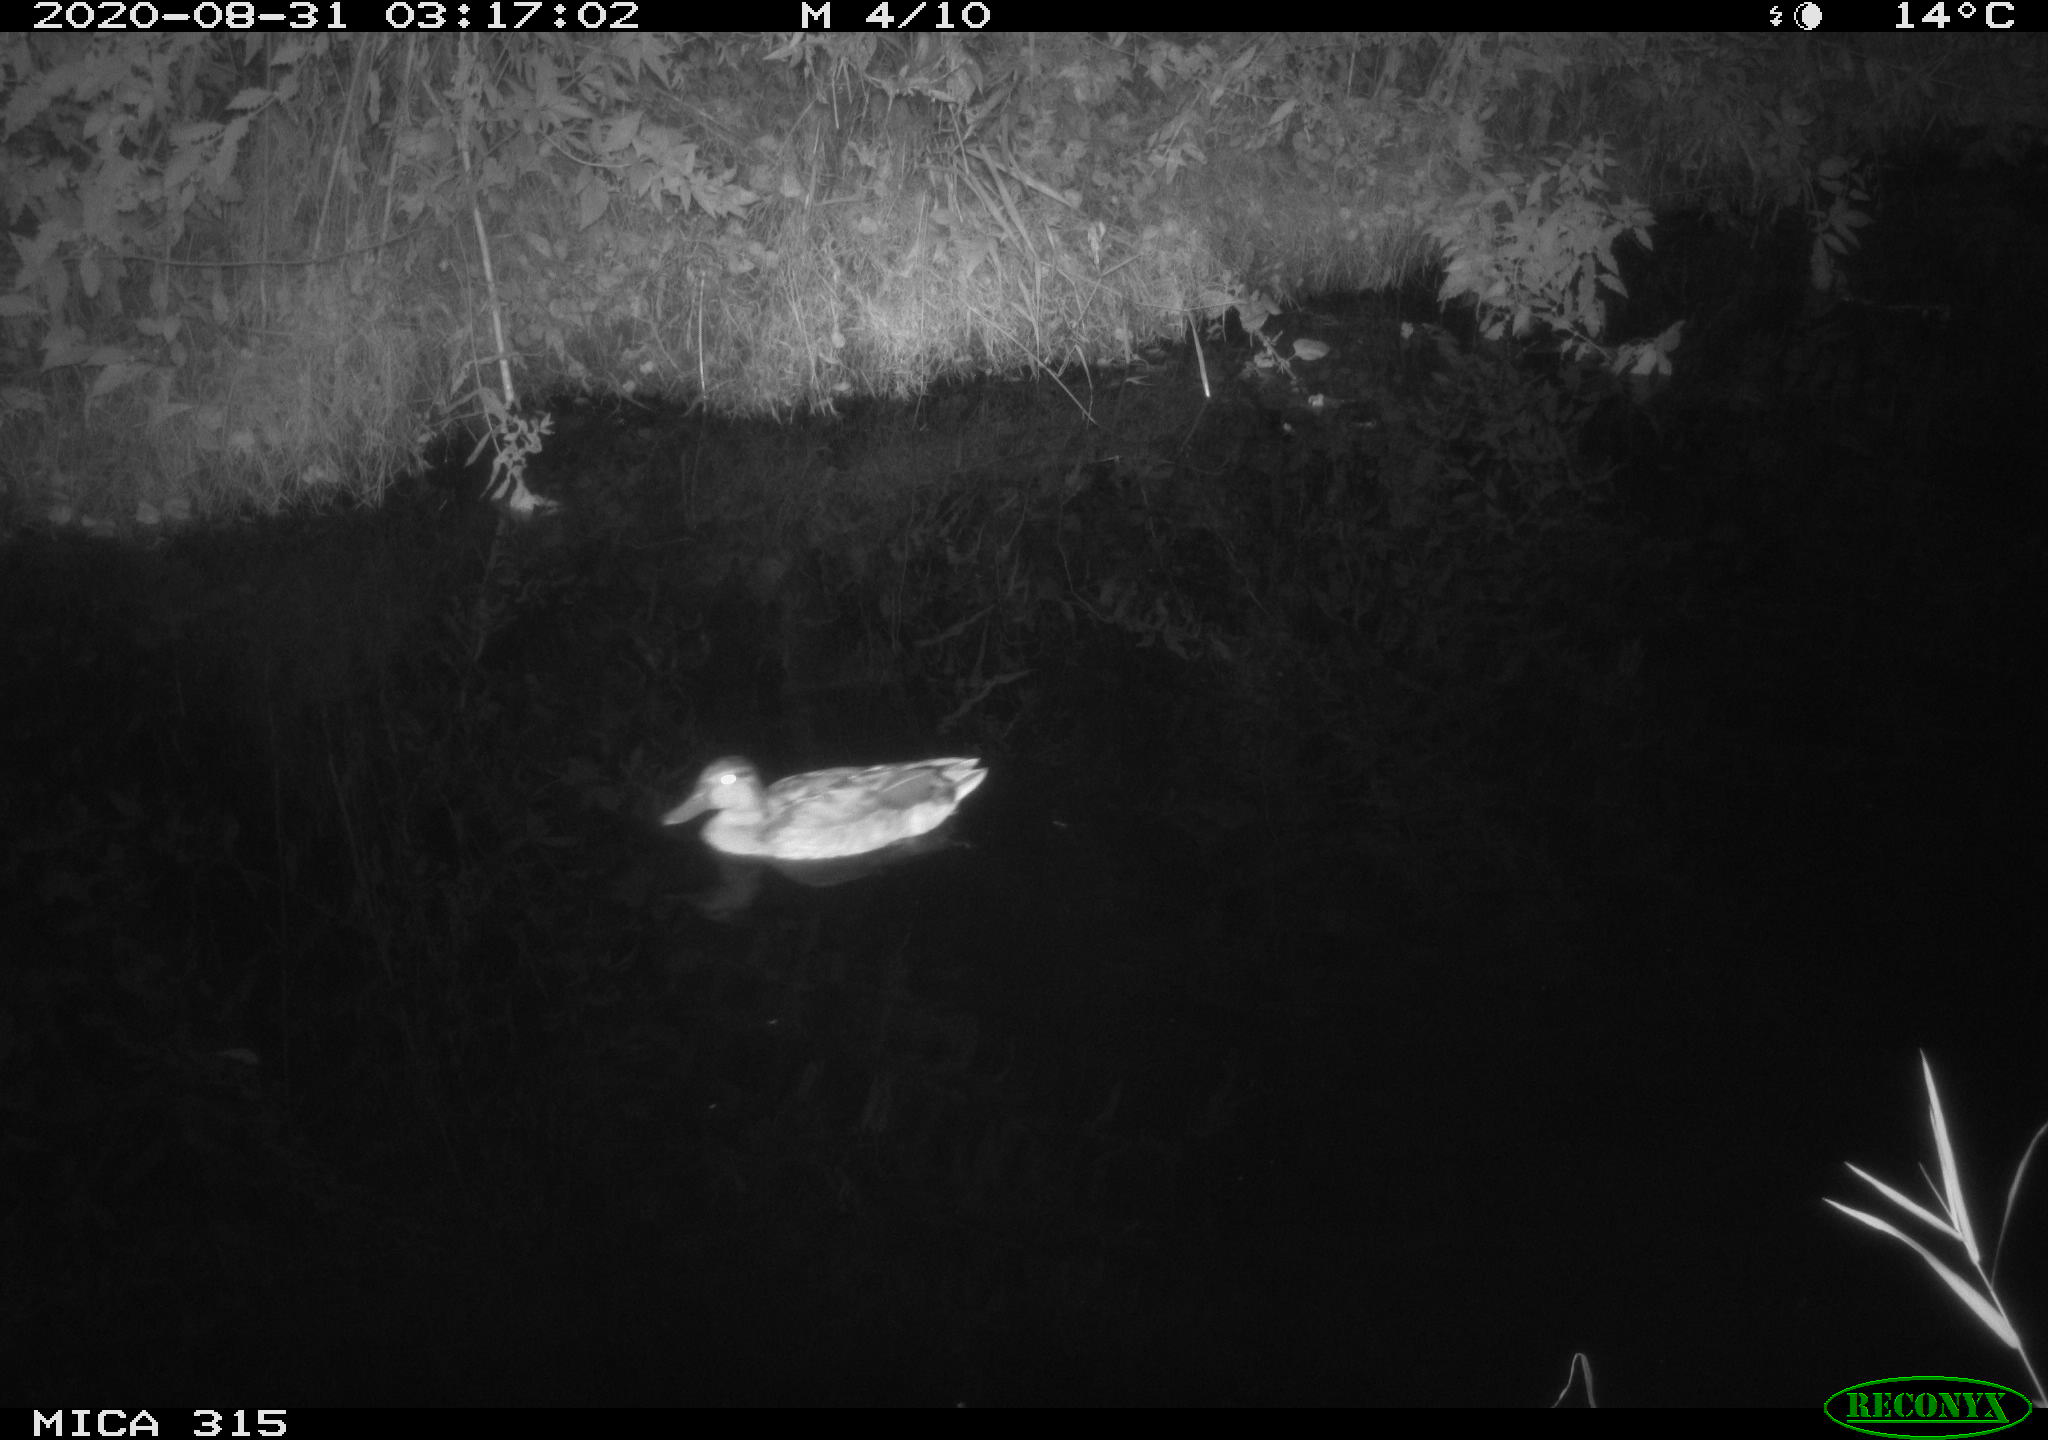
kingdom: Animalia
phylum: Chordata
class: Aves
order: Anseriformes
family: Anatidae
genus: Anas
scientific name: Anas platyrhynchos
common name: Mallard
